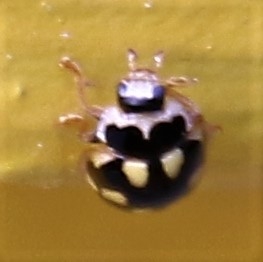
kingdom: Animalia
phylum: Arthropoda
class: Insecta
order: Coleoptera
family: Coccinellidae
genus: Propylaea
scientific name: Propylaea quatuordecimpunctata
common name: Skakbræt
